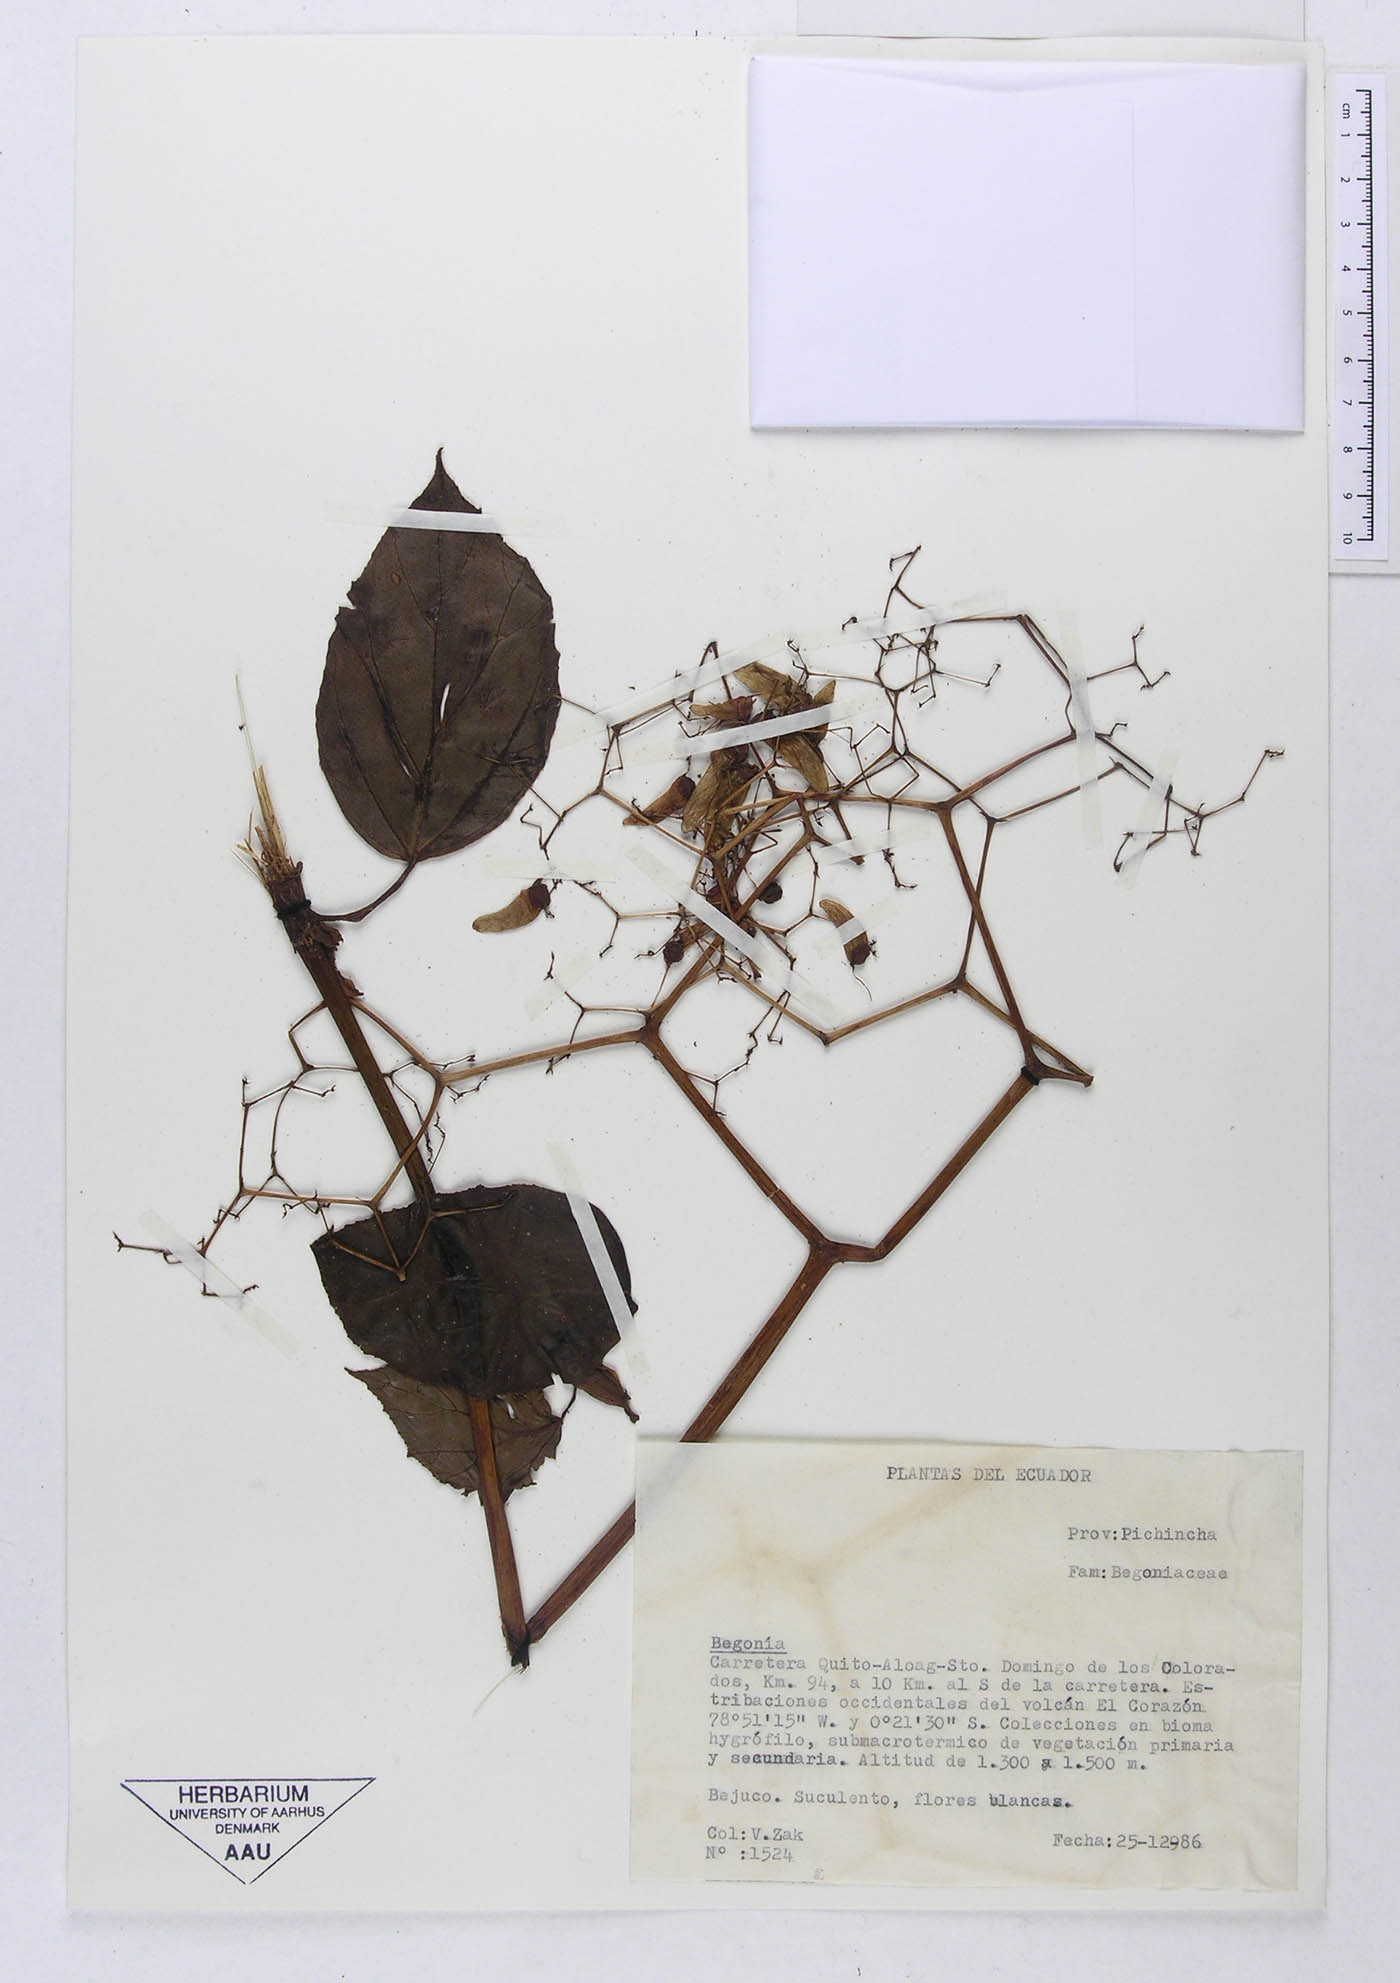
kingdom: Plantae
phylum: Tracheophyta
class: Magnoliopsida
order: Cucurbitales
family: Begoniaceae
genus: Begonia
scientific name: Begonia glabra
